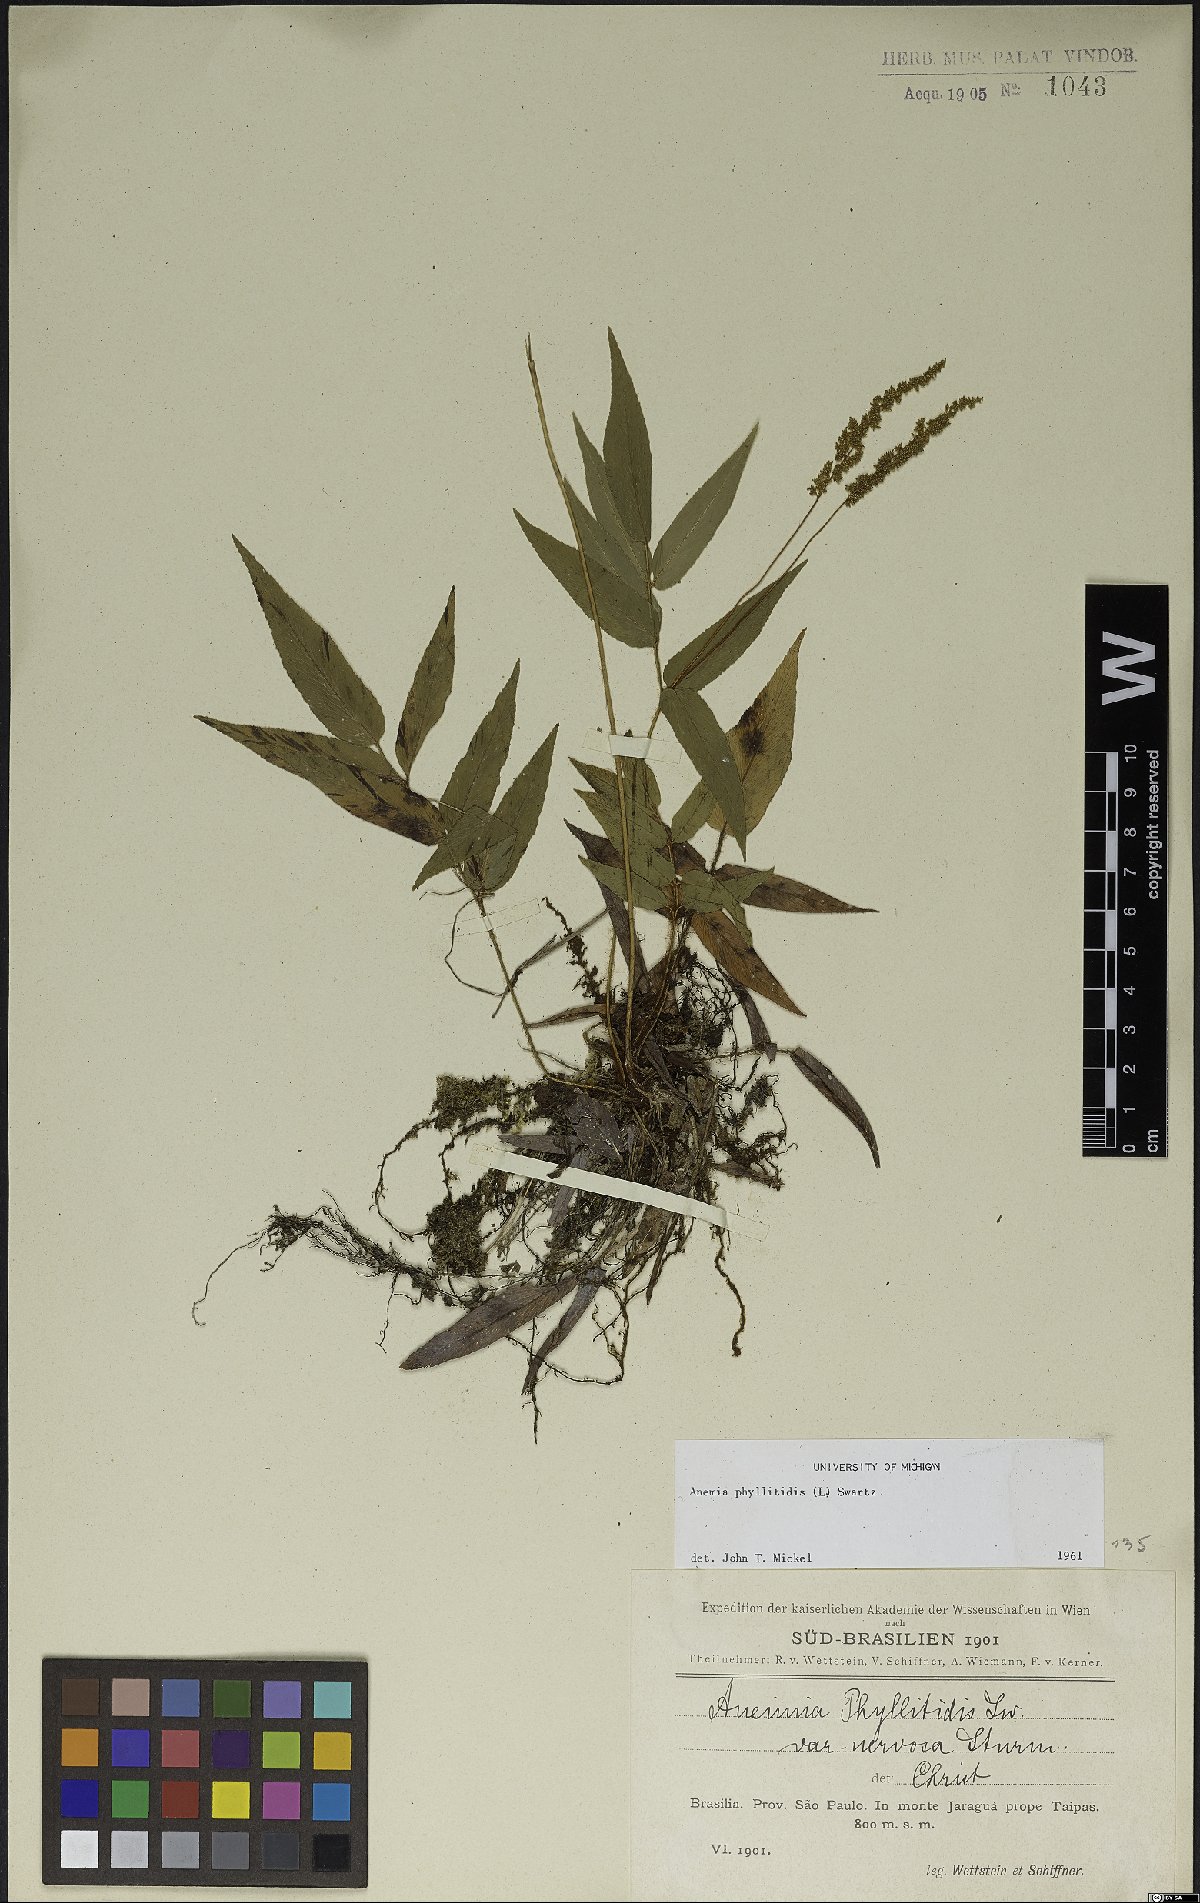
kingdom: Plantae
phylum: Tracheophyta
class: Polypodiopsida
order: Schizaeales
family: Anemiaceae
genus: Anemia
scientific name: Anemia phyllitidis
